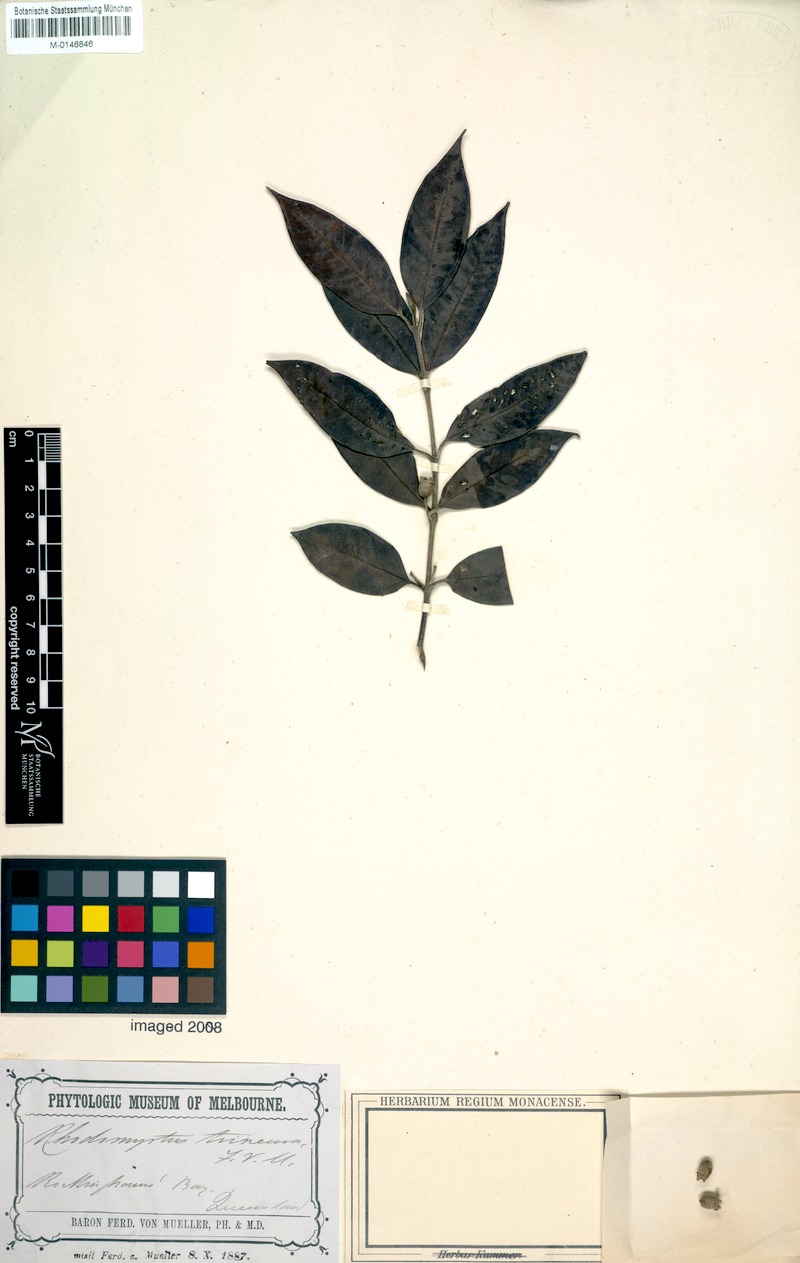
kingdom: Plantae
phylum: Tracheophyta
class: Magnoliopsida
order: Myrtales
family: Myrtaceae
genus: Rhodomyrtus
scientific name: Rhodomyrtus trineura
